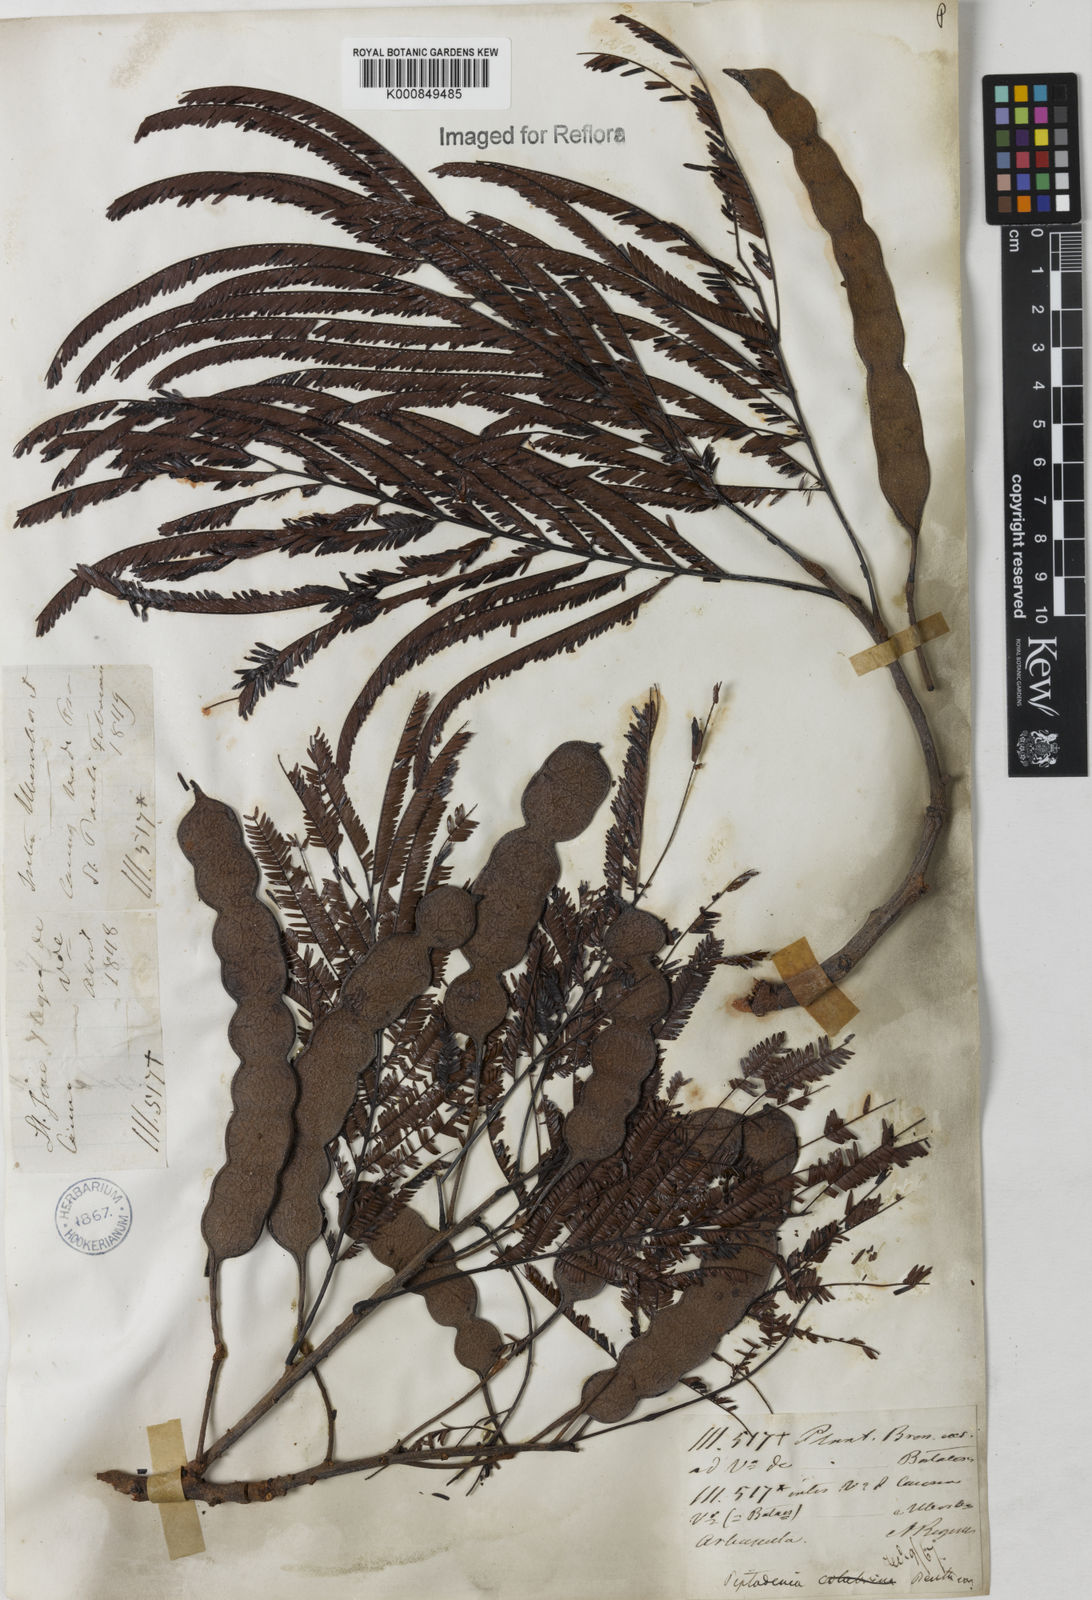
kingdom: Plantae
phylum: Tracheophyta
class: Magnoliopsida
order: Fabales
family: Fabaceae
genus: Anadenanthera
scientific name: Anadenanthera peregrina
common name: Cohoba
